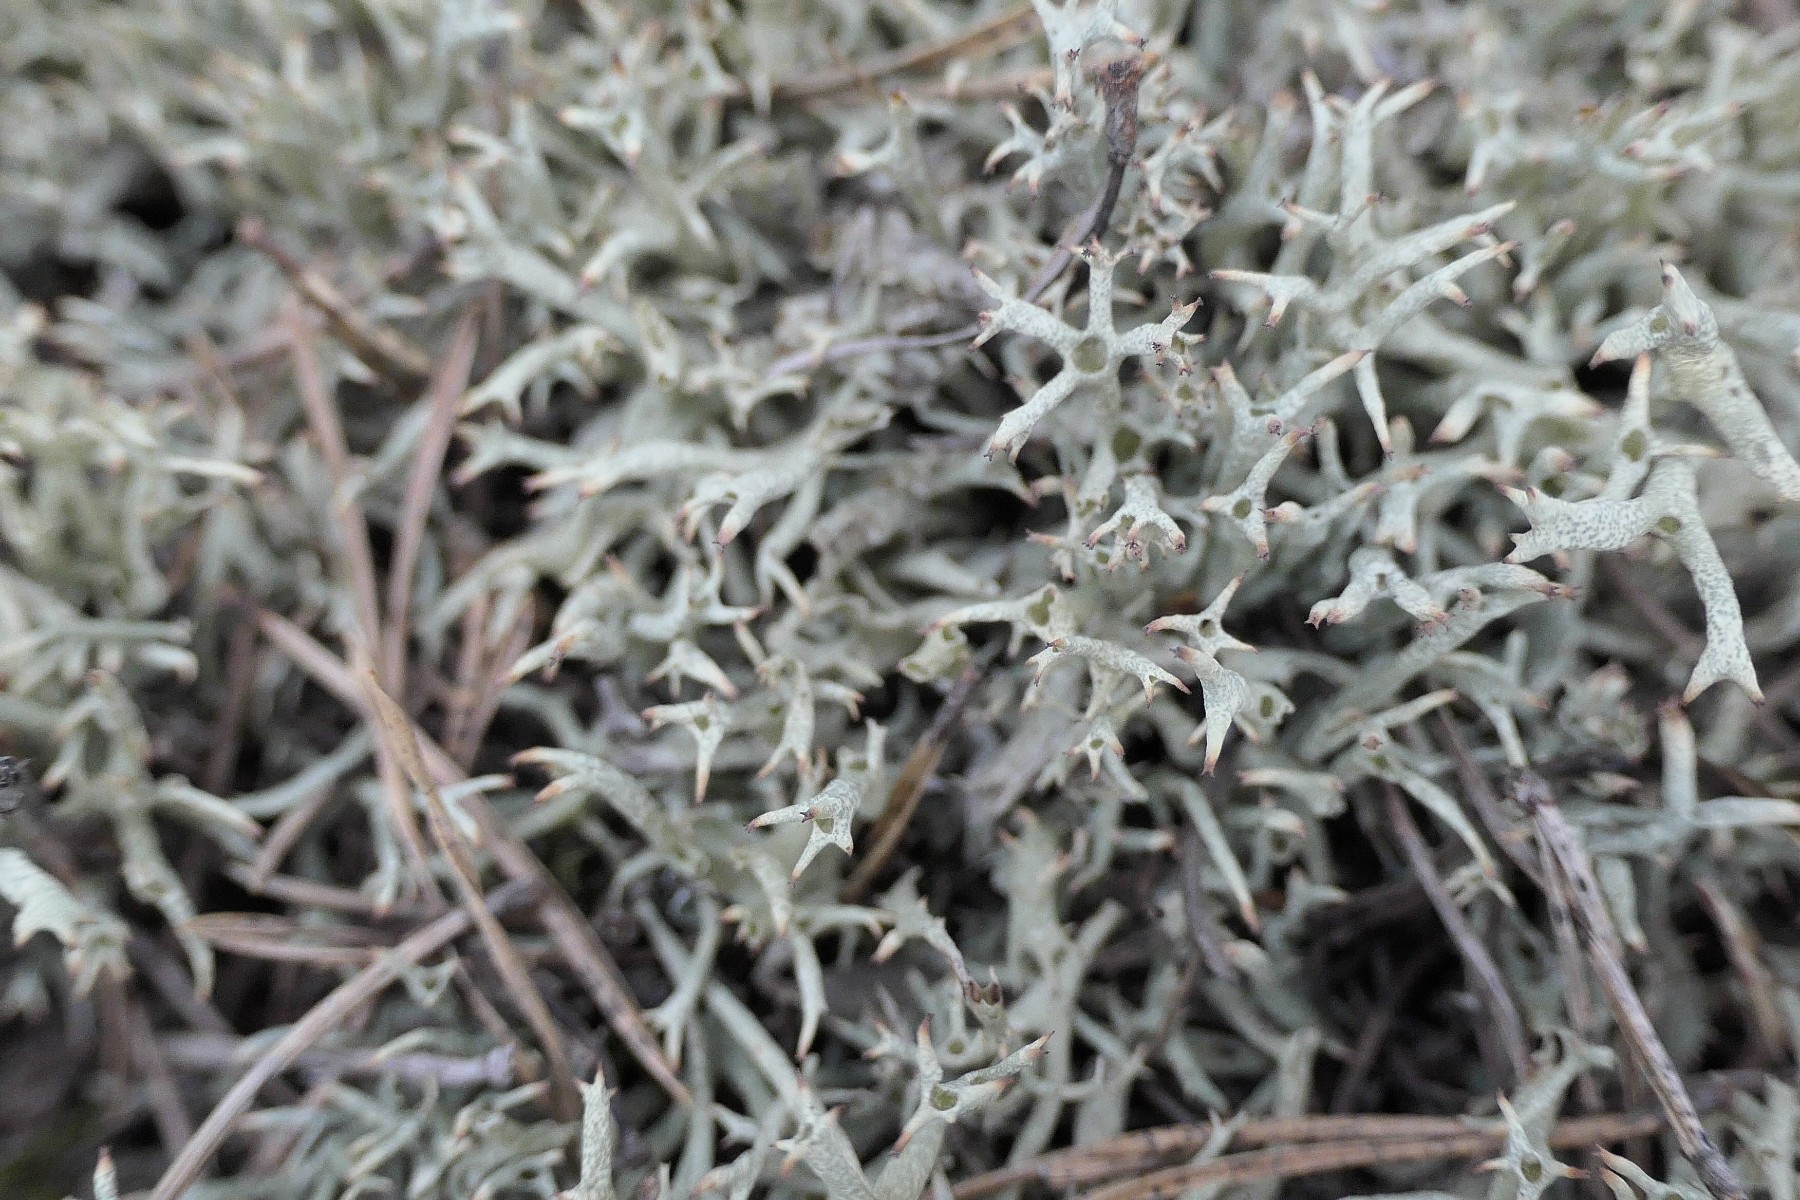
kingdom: Fungi
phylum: Ascomycota
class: Lecanoromycetes
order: Lecanorales
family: Cladoniaceae
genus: Cladonia
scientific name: Cladonia uncialis
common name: pigget bægerlav
